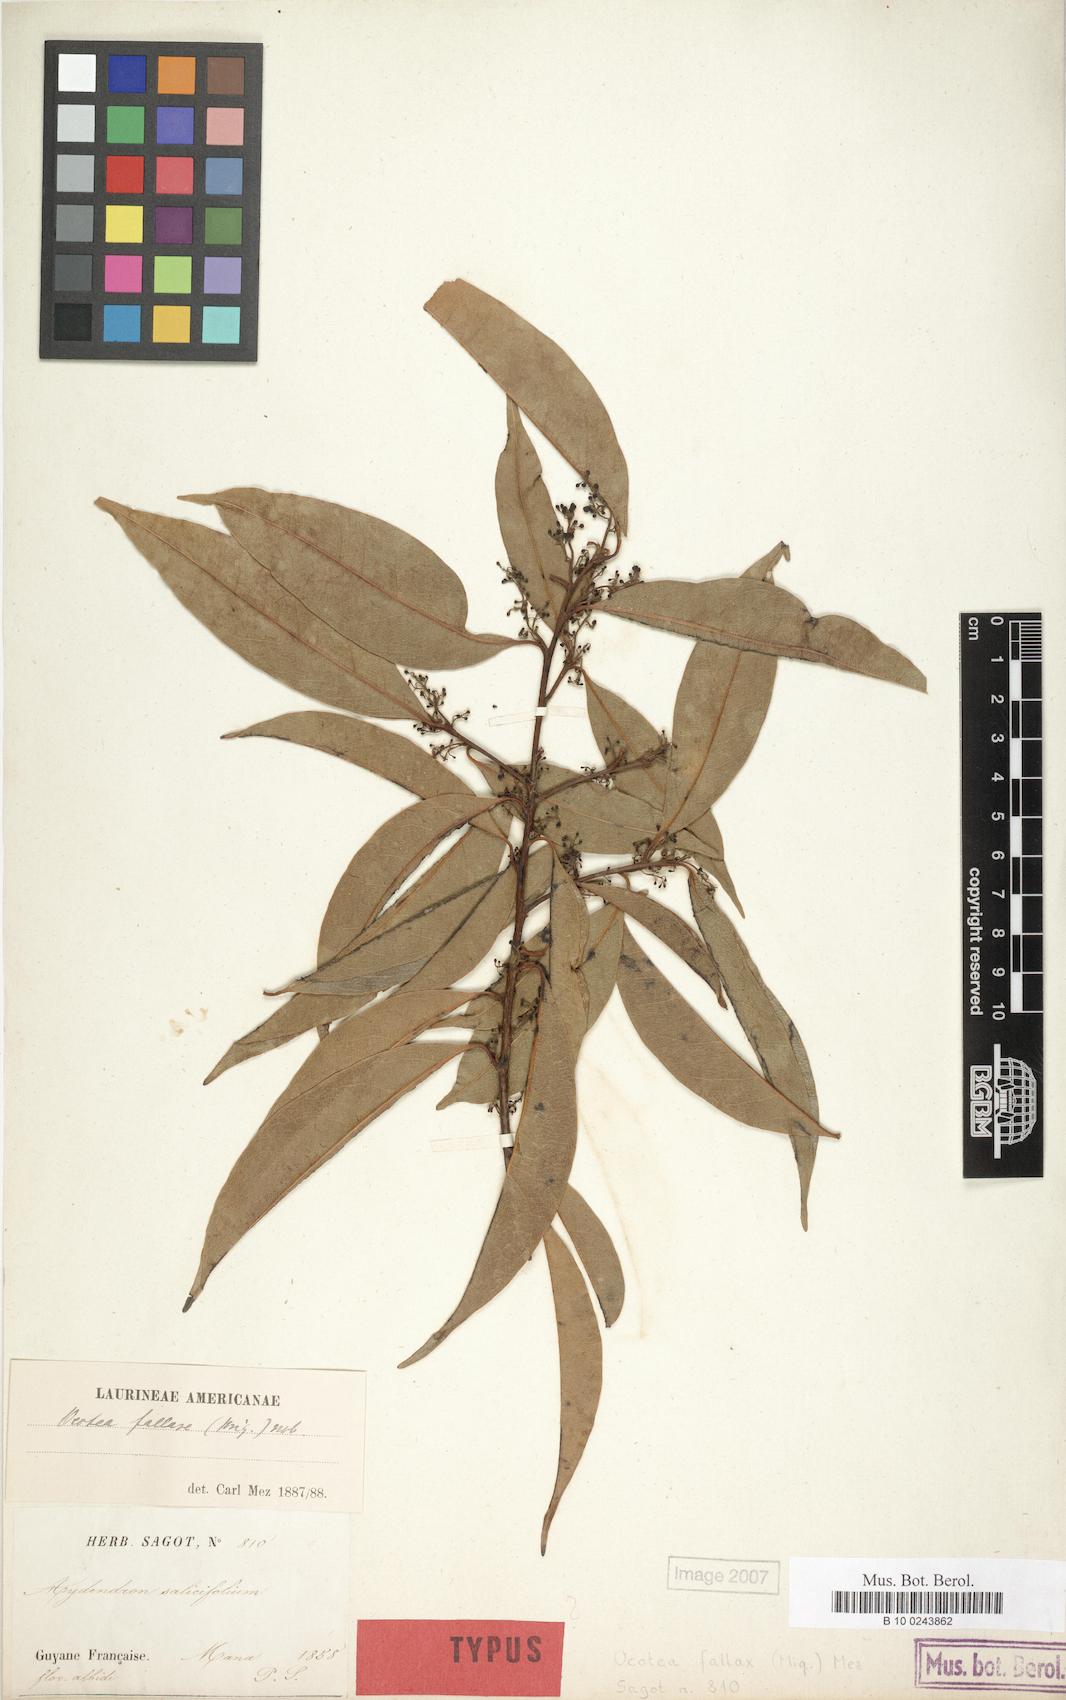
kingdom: Plantae
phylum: Tracheophyta
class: Magnoliopsida
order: Laurales
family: Lauraceae
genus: Ocotea
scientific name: Ocotea neesiana
